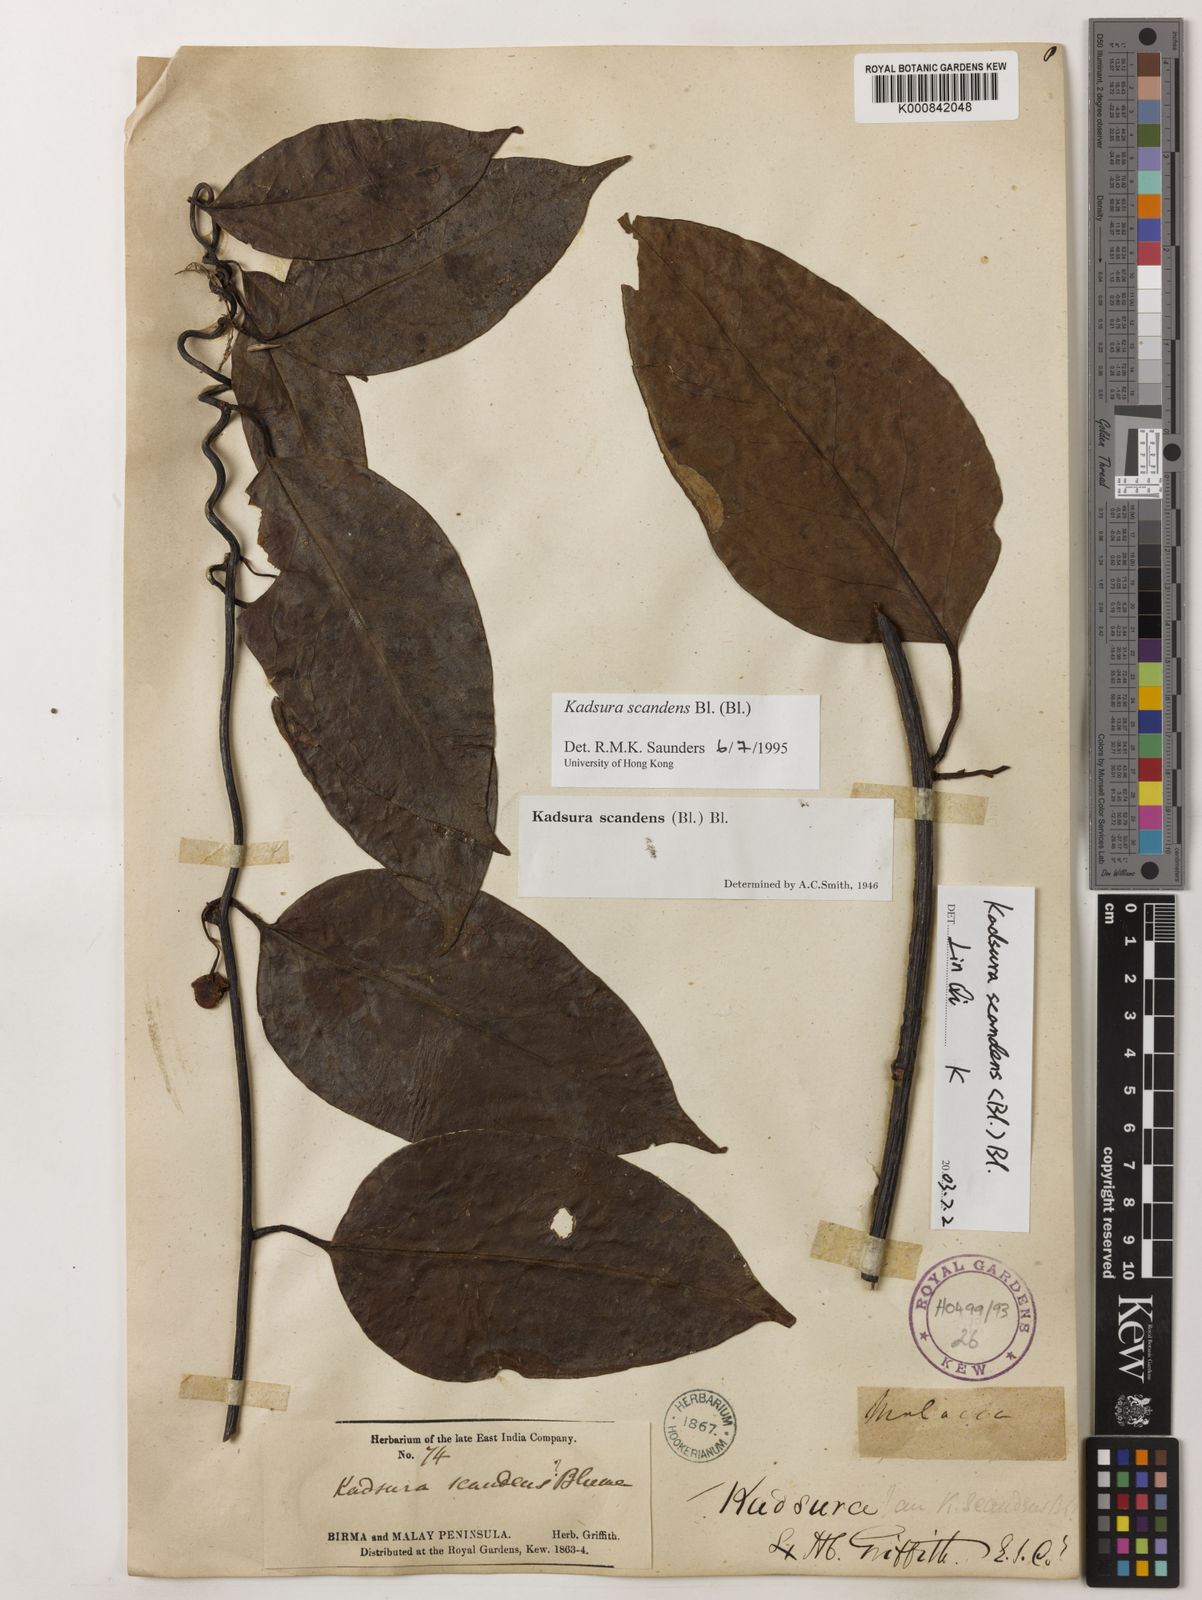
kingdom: Plantae
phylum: Tracheophyta
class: Magnoliopsida
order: Austrobaileyales
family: Schisandraceae
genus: Kadsura
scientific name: Kadsura scandens
